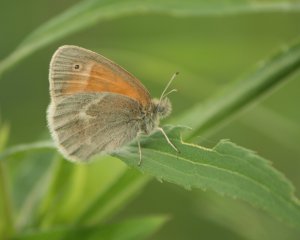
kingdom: Animalia
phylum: Arthropoda
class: Insecta
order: Lepidoptera
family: Nymphalidae
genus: Coenonympha
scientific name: Coenonympha tullia
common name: Large Heath
